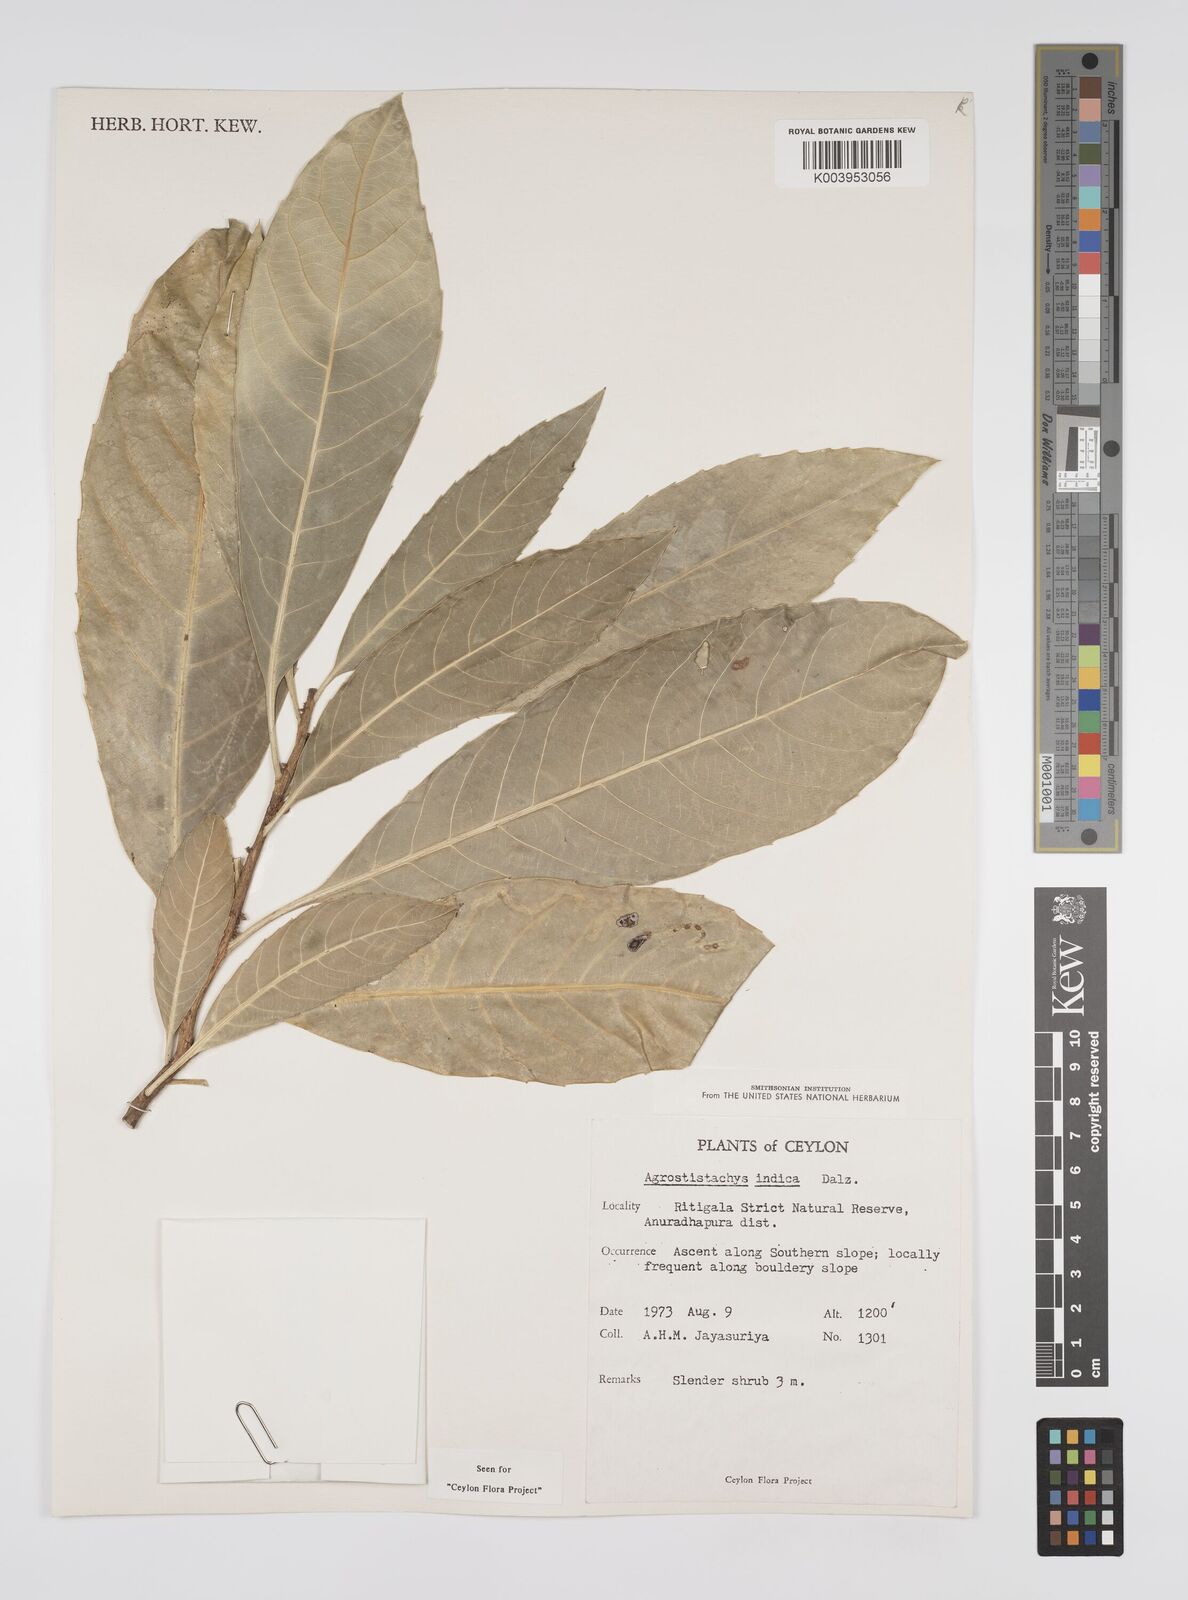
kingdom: Plantae
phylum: Tracheophyta
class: Magnoliopsida
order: Malpighiales
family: Euphorbiaceae
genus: Agrostistachys
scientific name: Agrostistachys indica
